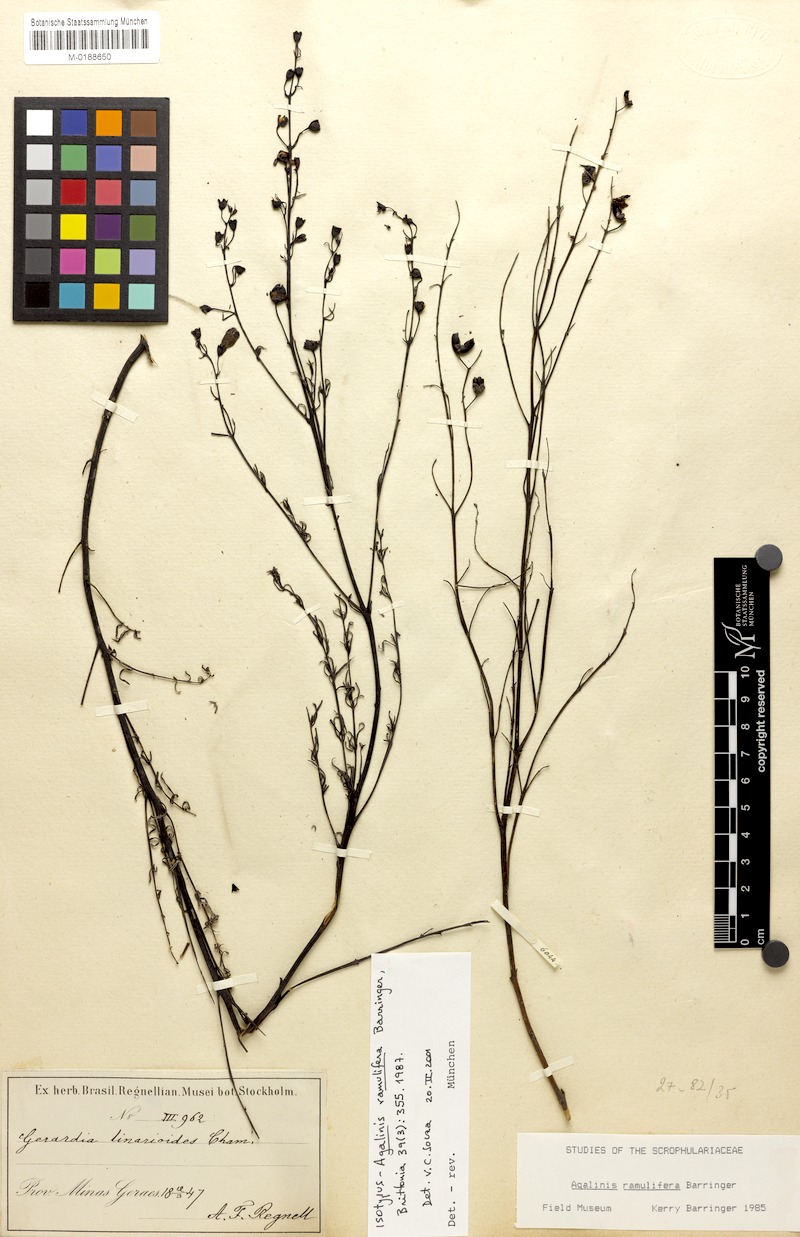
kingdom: Plantae
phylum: Tracheophyta
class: Magnoliopsida
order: Lamiales
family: Orobanchaceae
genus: Agalinis
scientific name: Agalinis ramulifera
